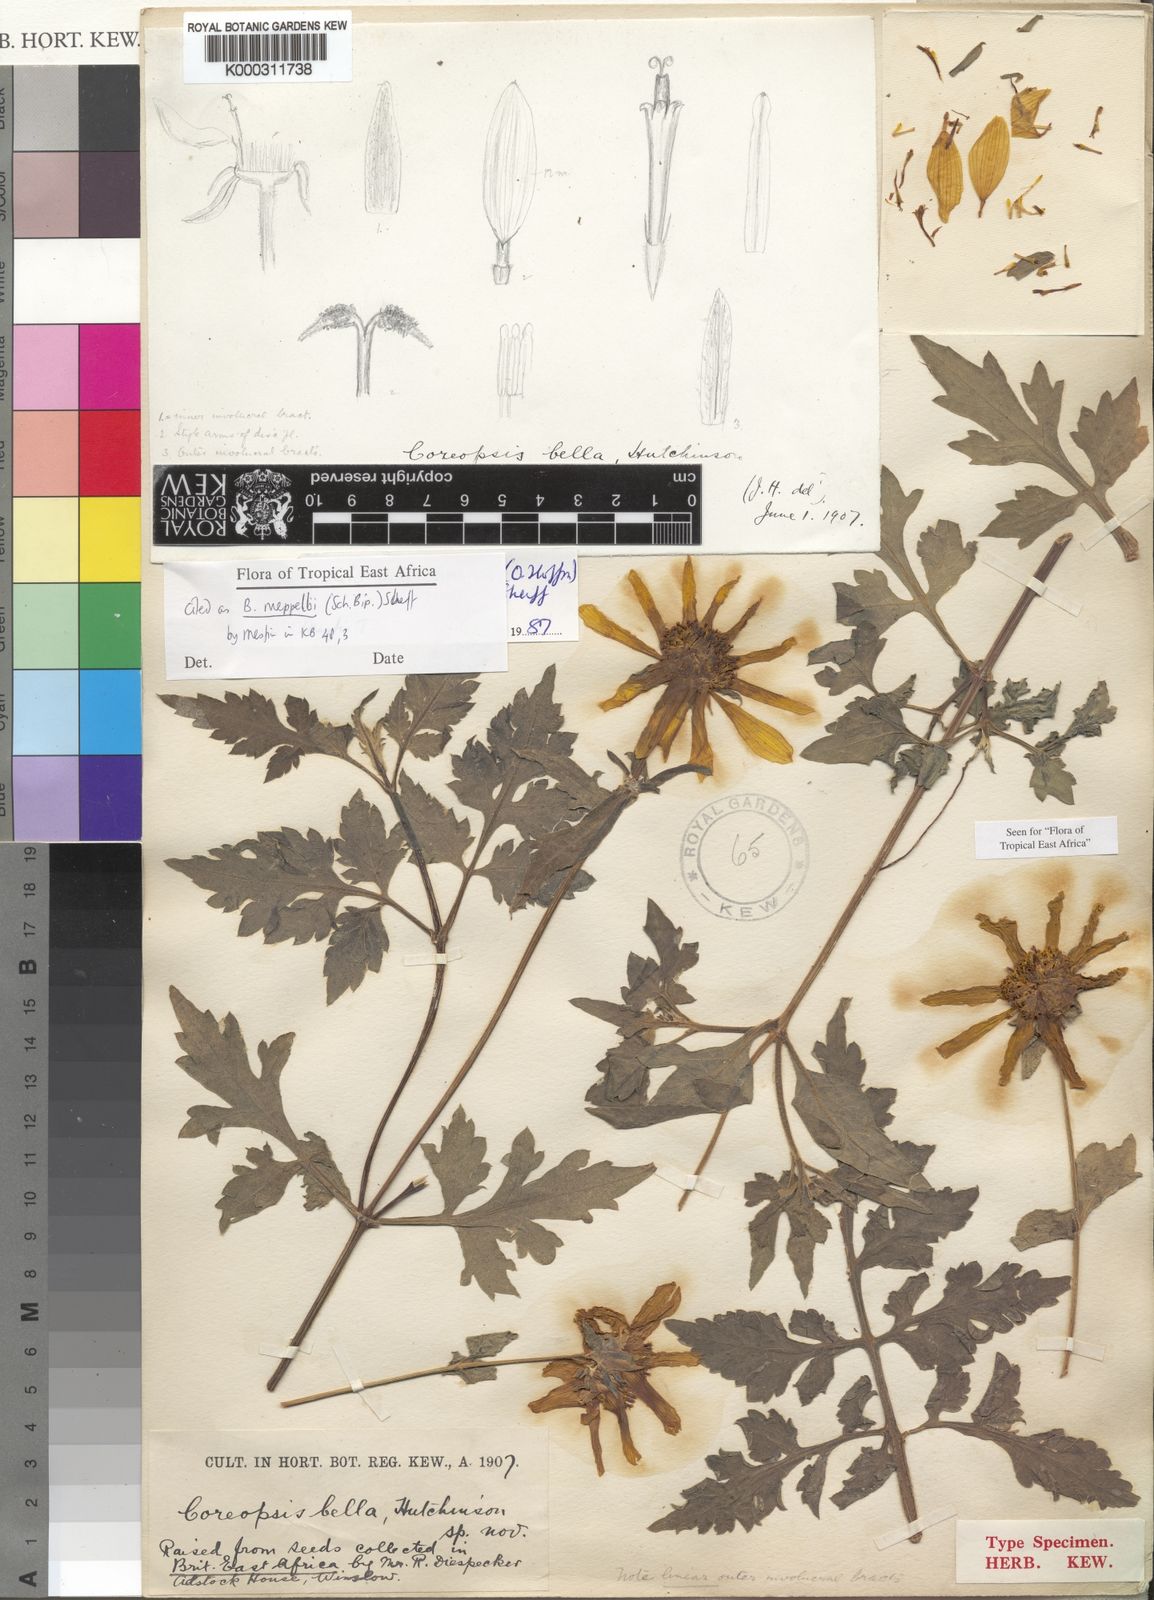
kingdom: Plantae
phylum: Tracheophyta
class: Magnoliopsida
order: Asterales
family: Asteraceae
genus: Bidens
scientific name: Bidens rueppellii
